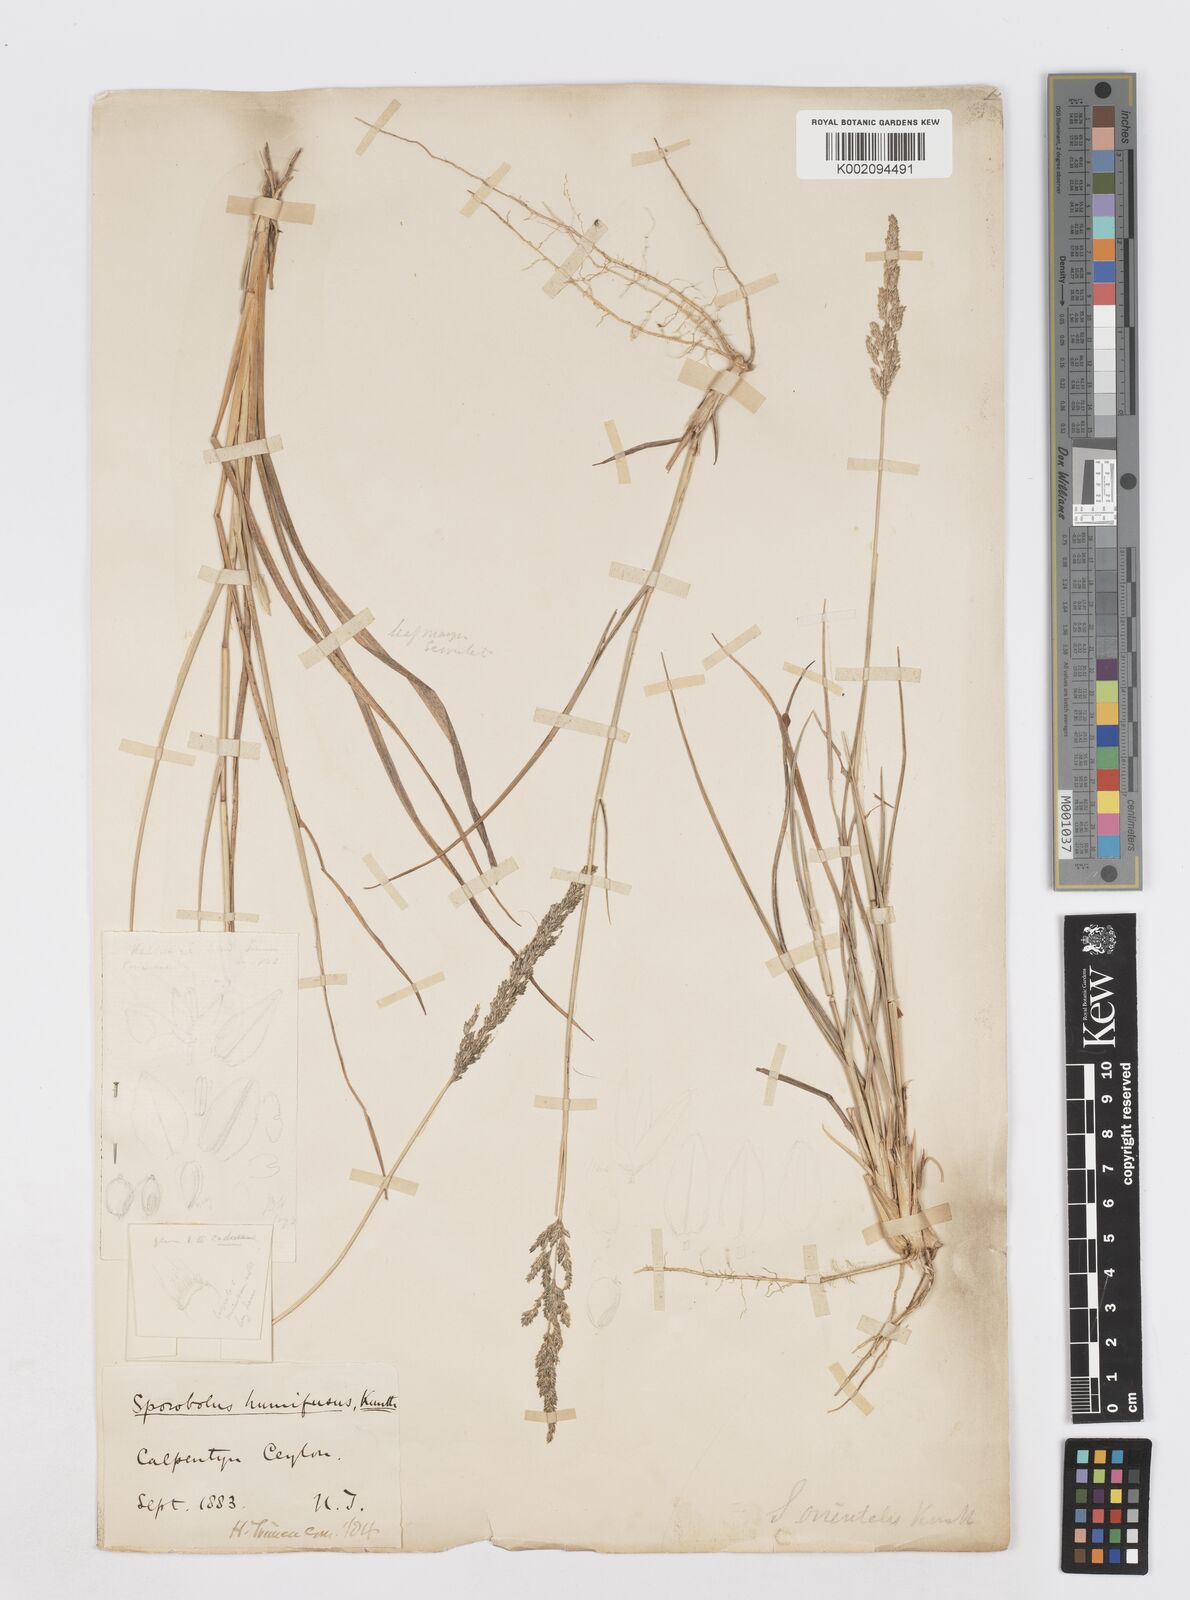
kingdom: Plantae
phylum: Tracheophyta
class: Liliopsida
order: Poales
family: Poaceae
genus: Sporobolus
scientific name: Sporobolus maderaspatanus
